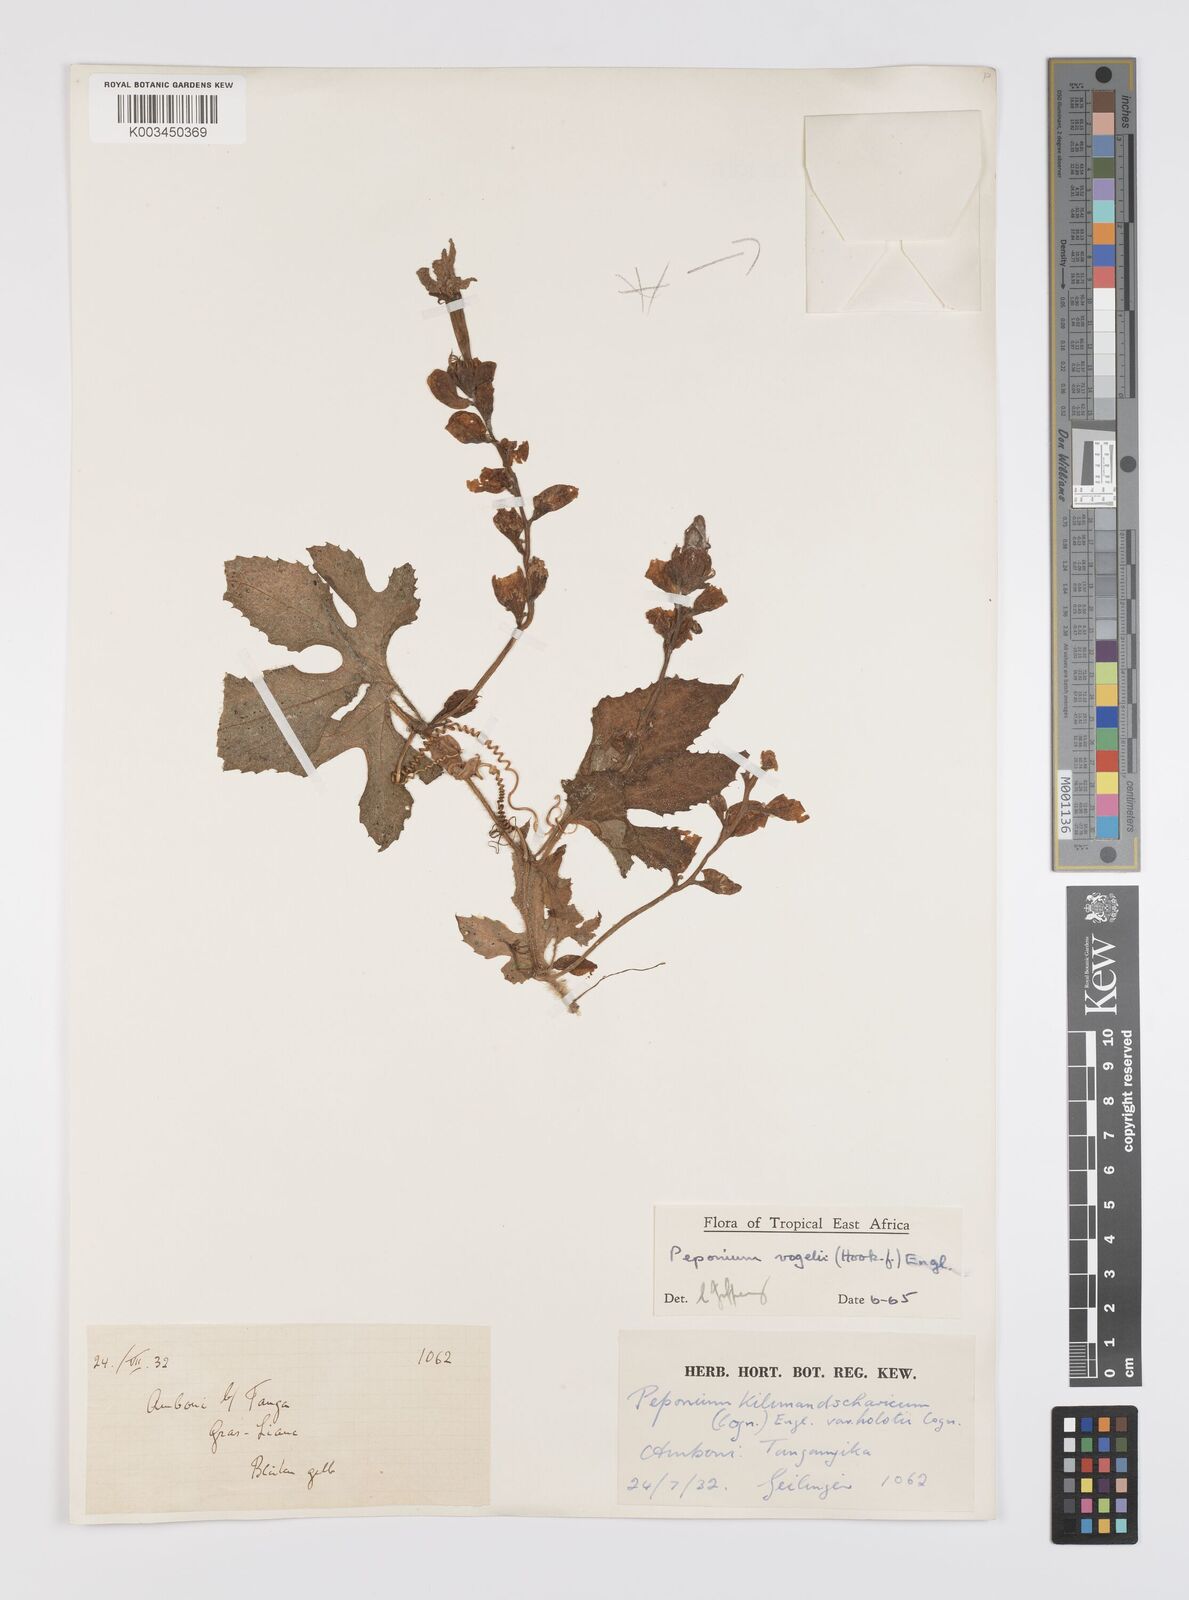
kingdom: Plantae
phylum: Tracheophyta
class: Magnoliopsida
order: Cucurbitales
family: Cucurbitaceae
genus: Peponium
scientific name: Peponium vogelii
